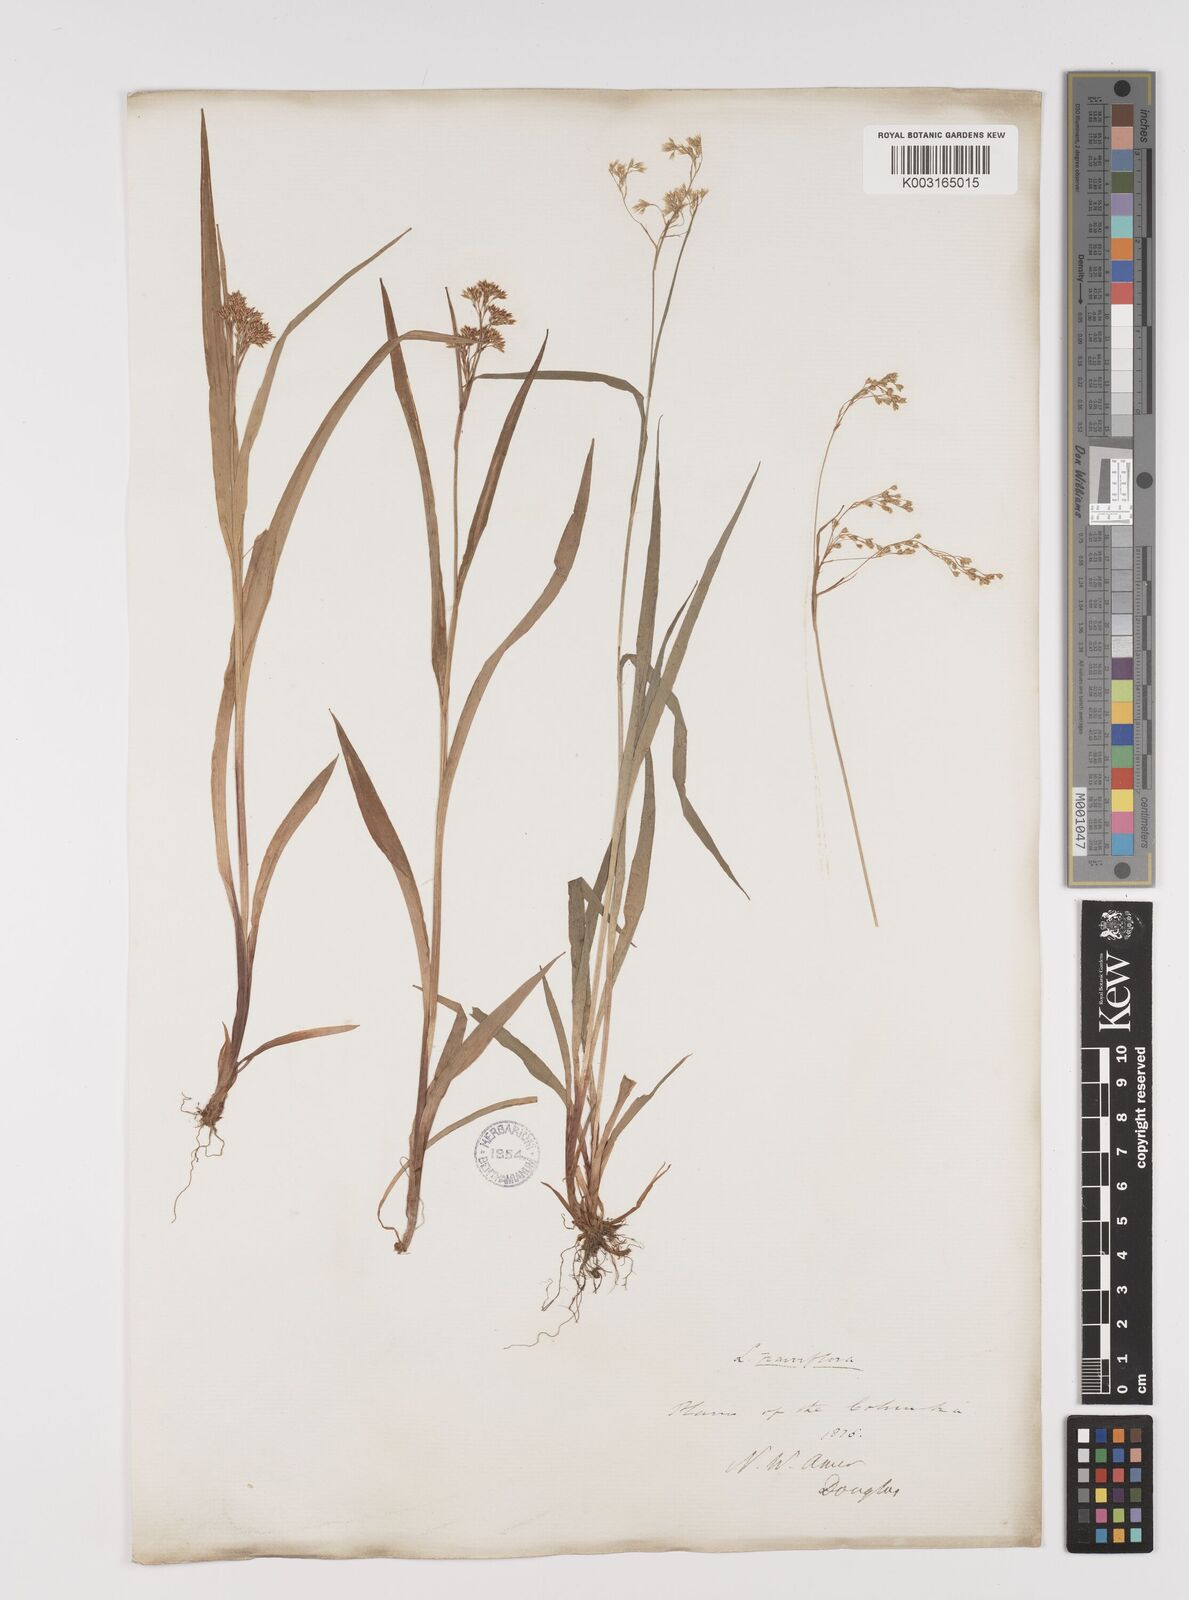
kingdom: Plantae
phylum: Tracheophyta
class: Liliopsida
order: Poales
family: Juncaceae
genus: Luzula
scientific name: Luzula parviflora
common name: Millet woodrush
